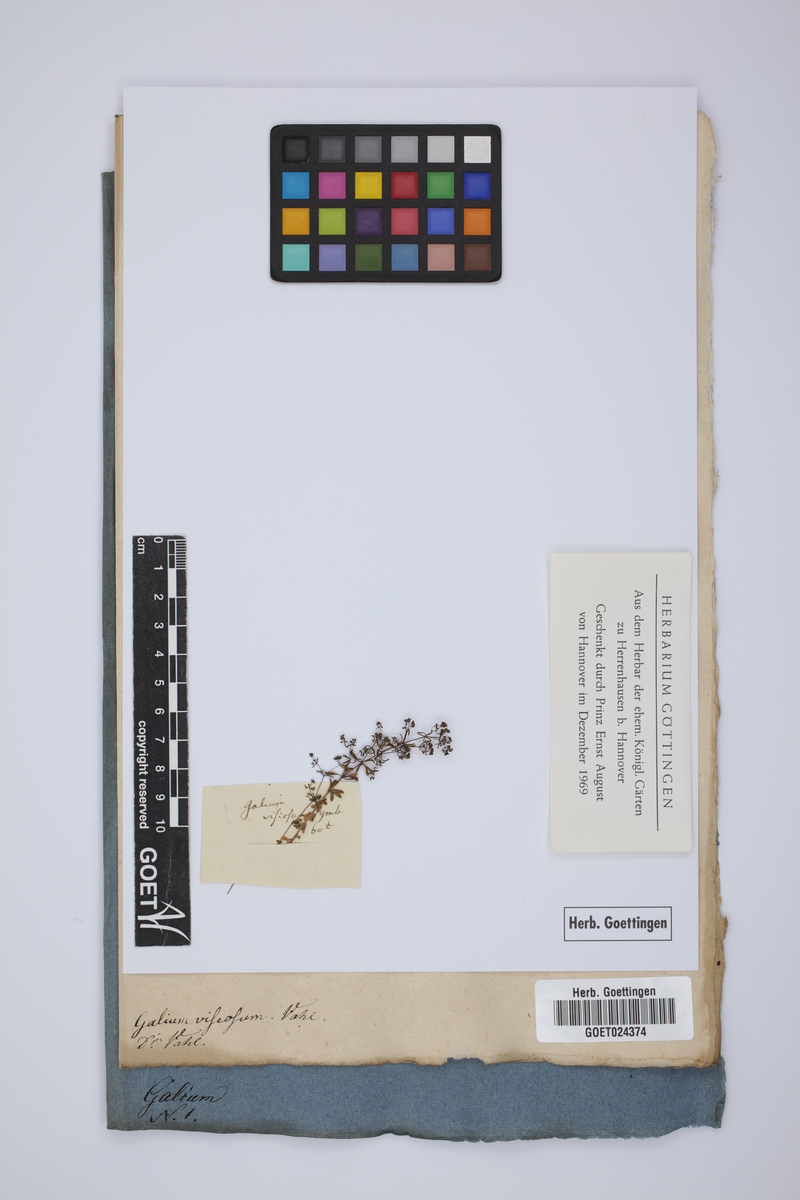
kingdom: Plantae
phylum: Tracheophyta
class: Magnoliopsida
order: Gentianales
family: Rubiaceae
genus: Galium
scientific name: Galium viscosum
